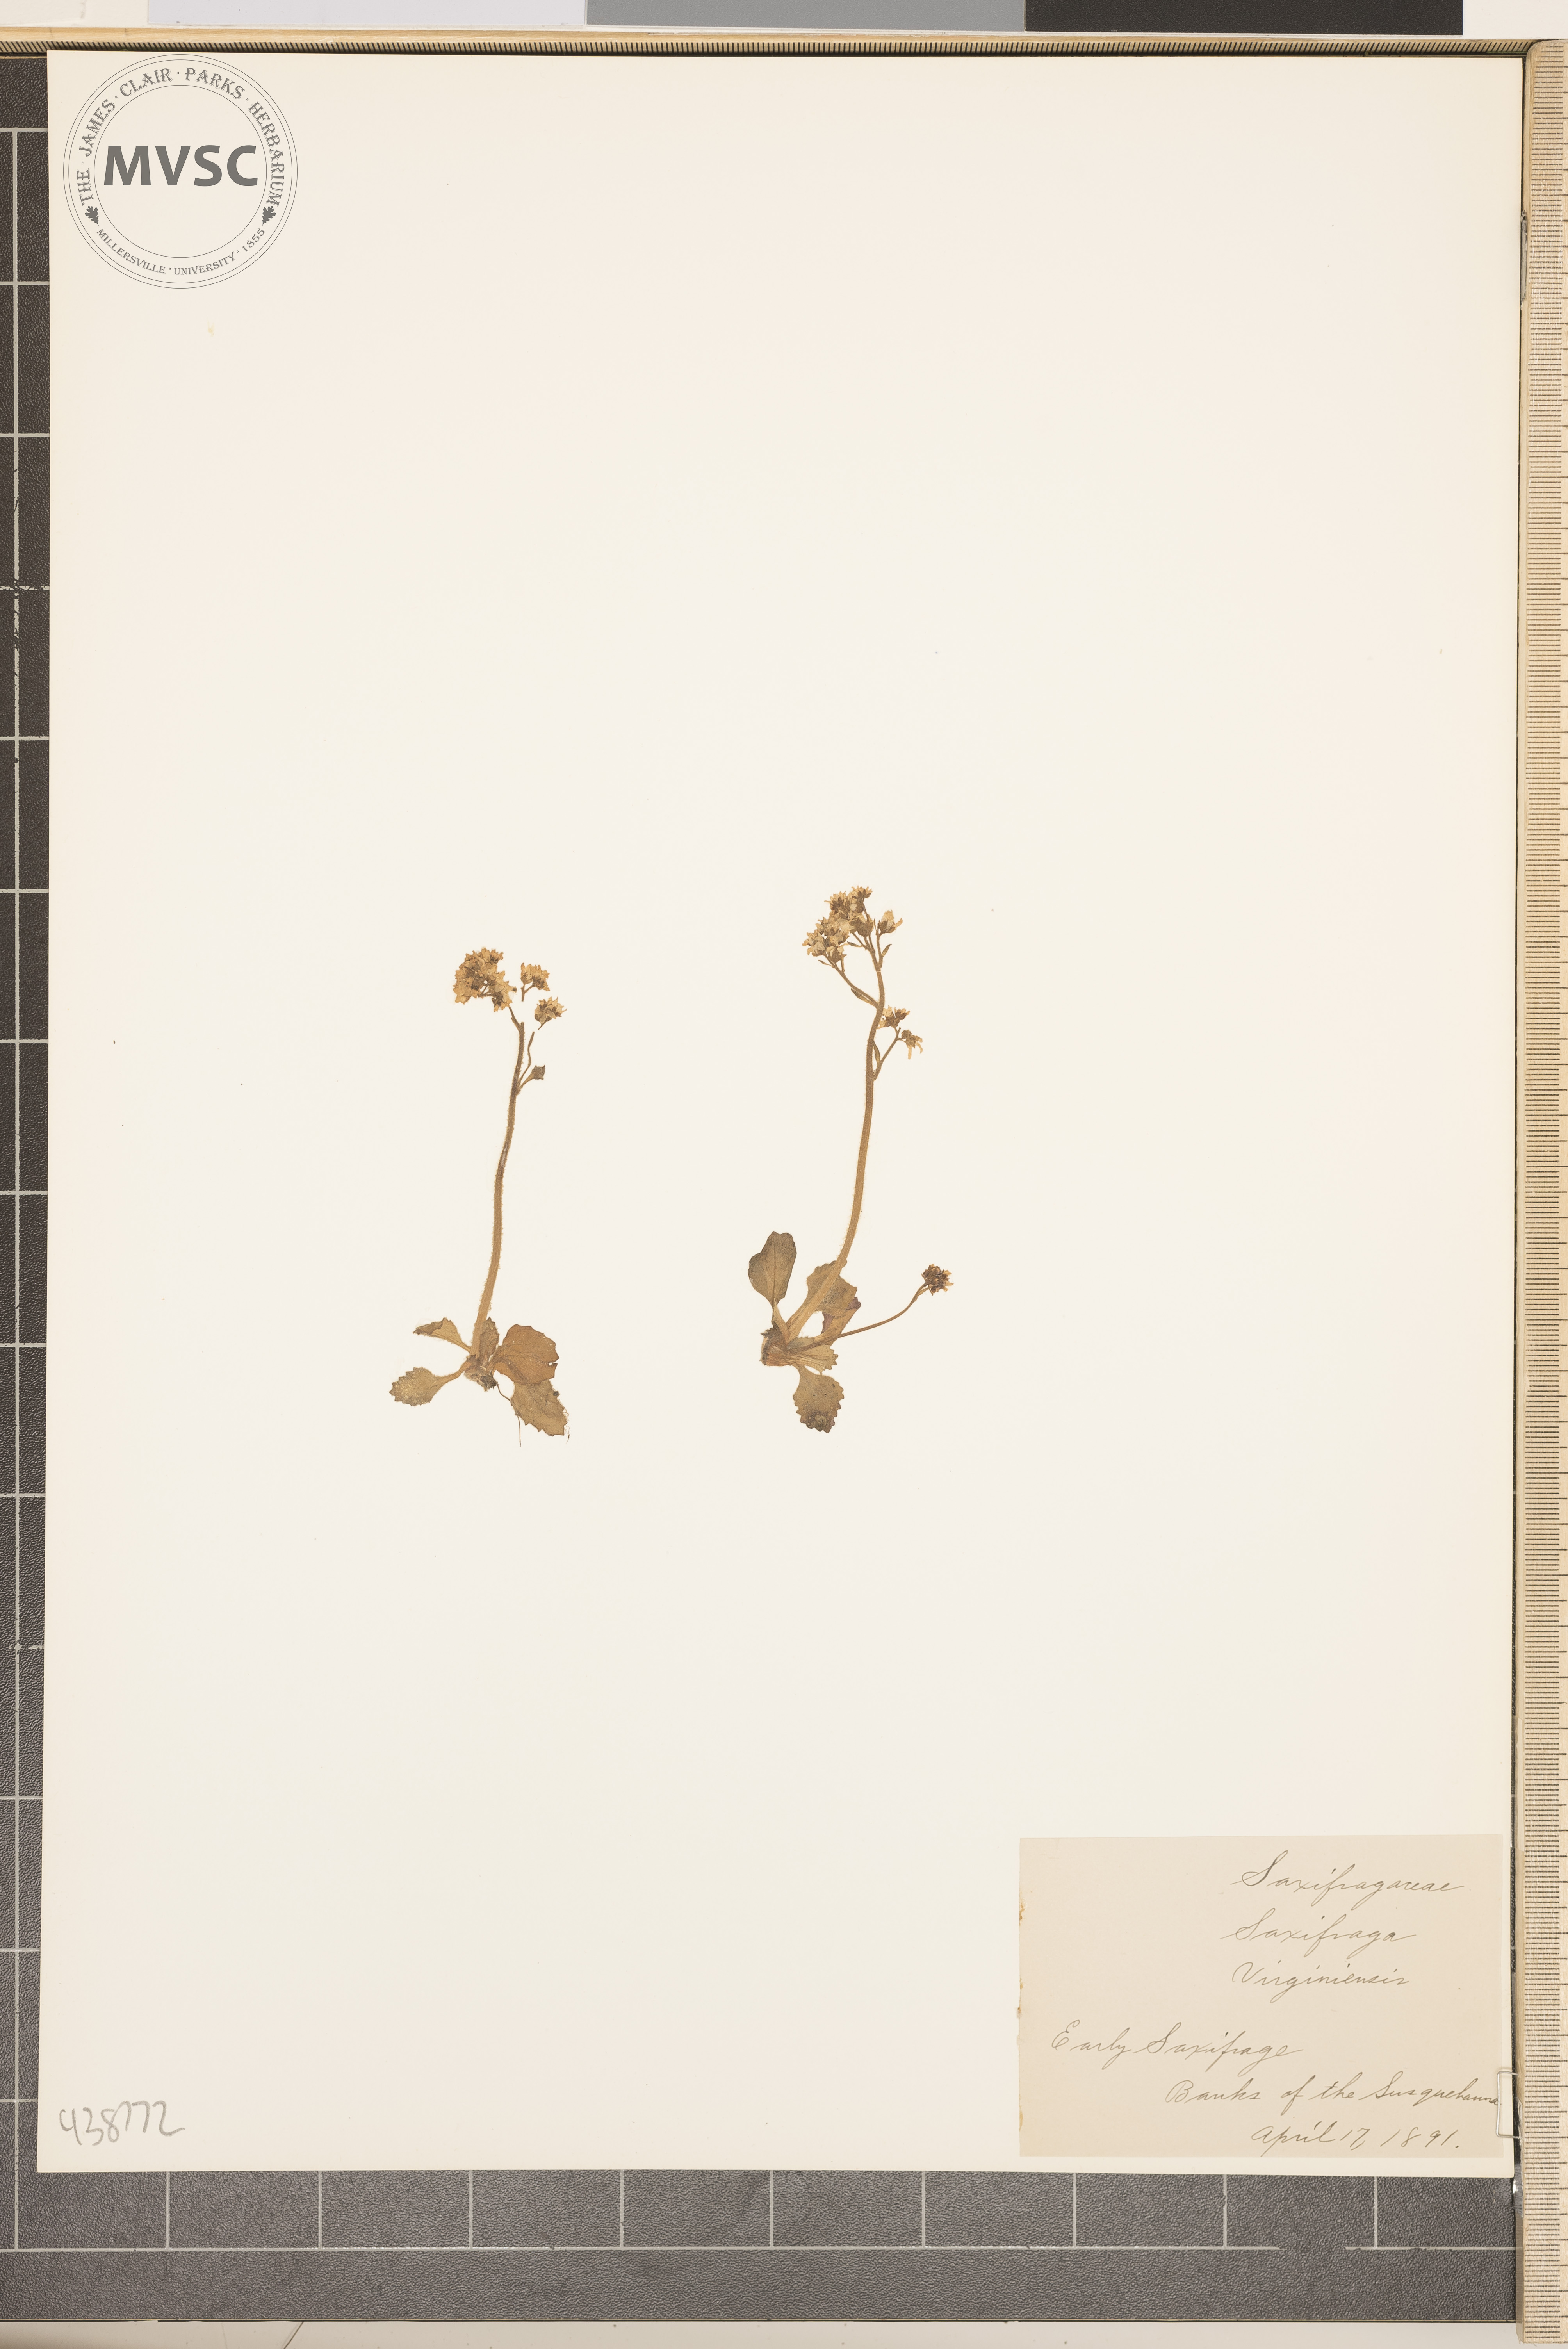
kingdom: Plantae
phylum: Tracheophyta
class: Magnoliopsida
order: Saxifragales
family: Saxifragaceae
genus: Micranthes
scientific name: Micranthes virginiensis
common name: Early saxifrage
